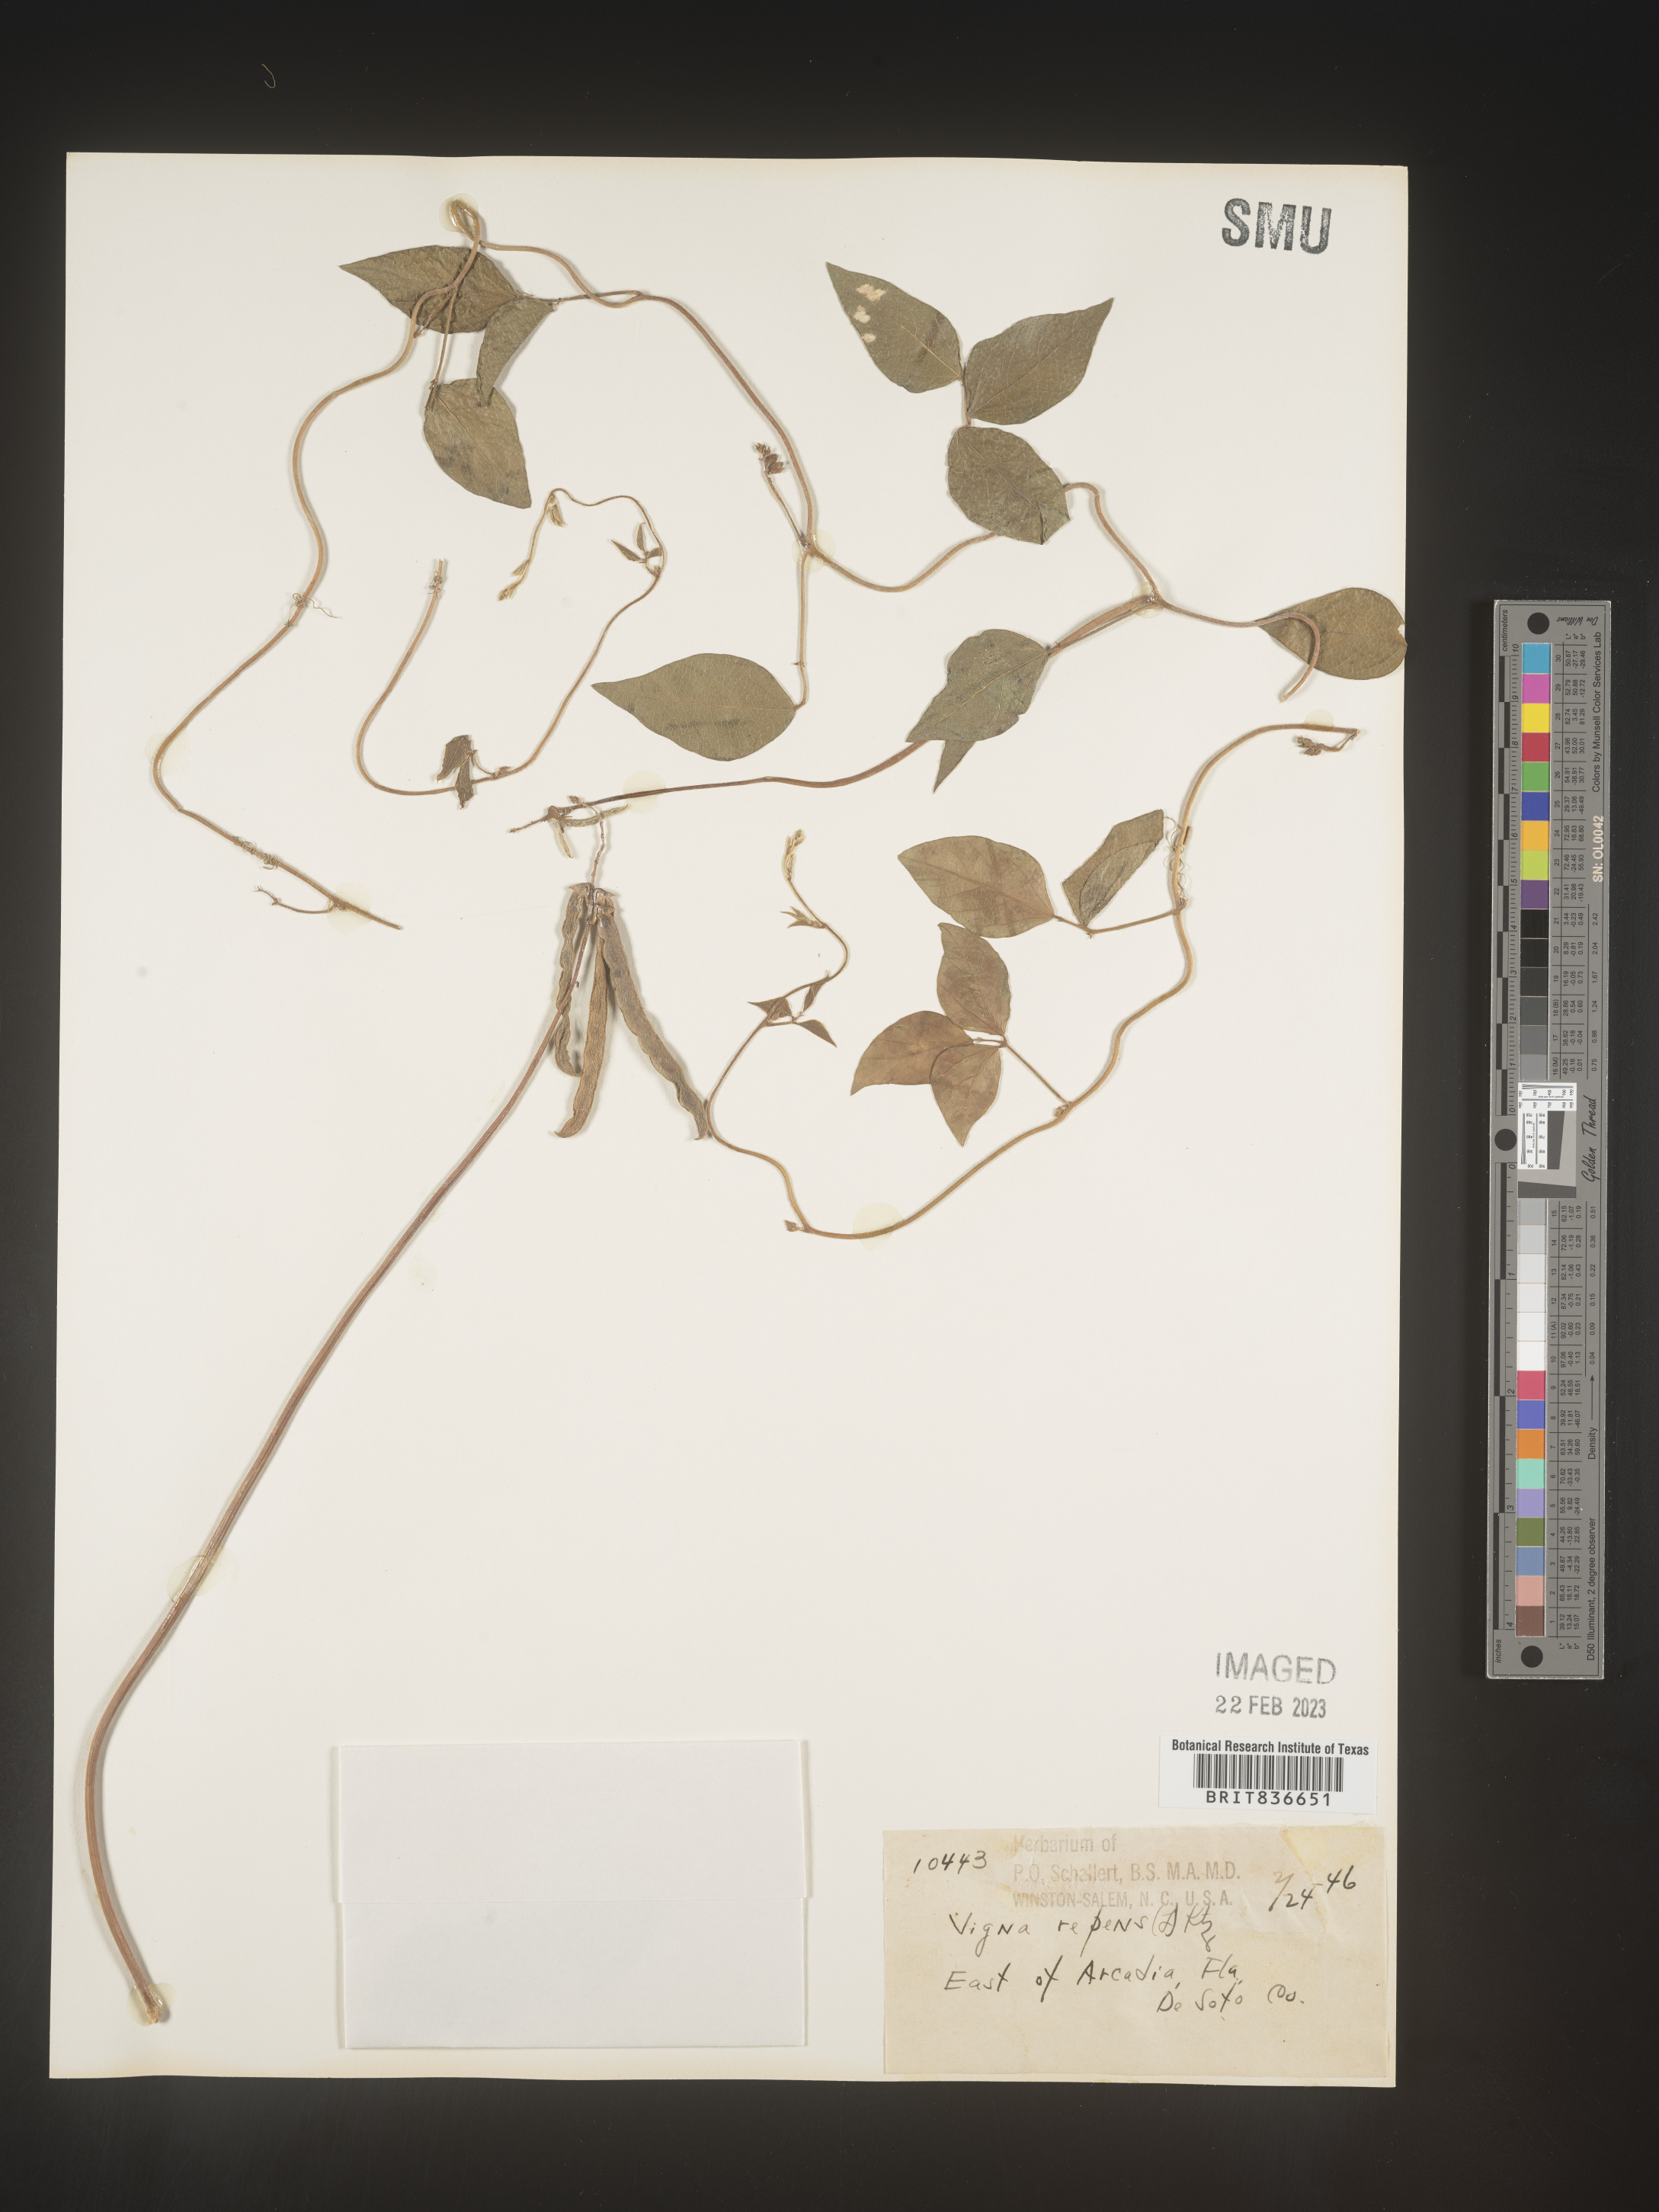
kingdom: Plantae
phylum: Tracheophyta
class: Magnoliopsida
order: Fabales
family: Fabaceae
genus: Vigna
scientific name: Vigna luteola
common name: Hairypod cowpea
